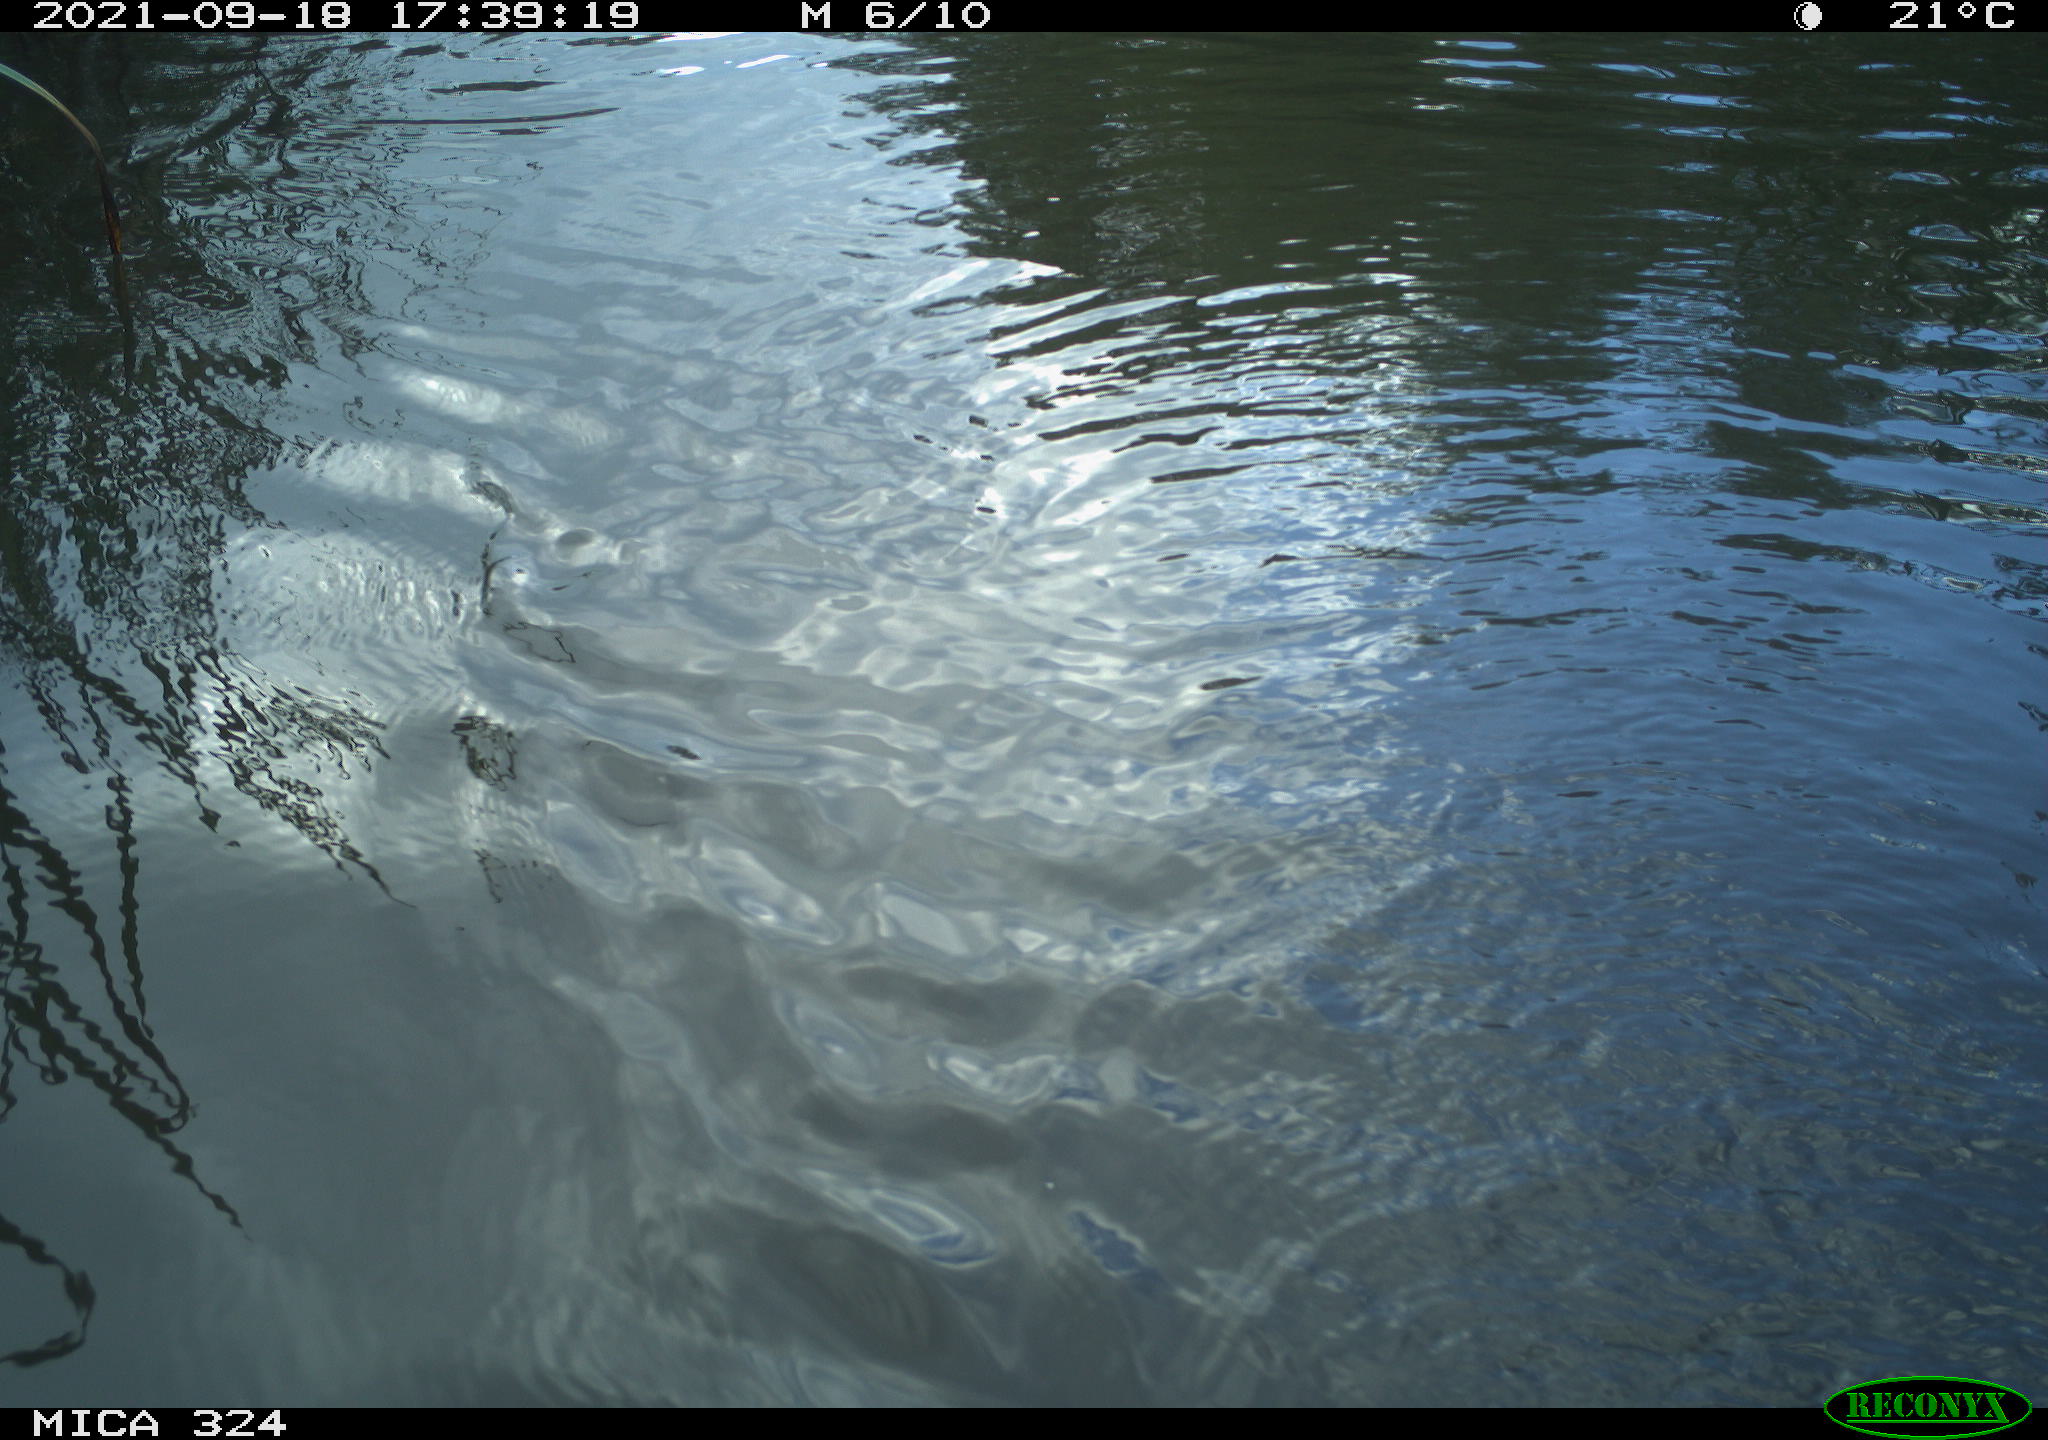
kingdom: Animalia
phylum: Chordata
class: Mammalia
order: Rodentia
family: Cricetidae
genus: Ondatra
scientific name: Ondatra zibethicus
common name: Muskrat
